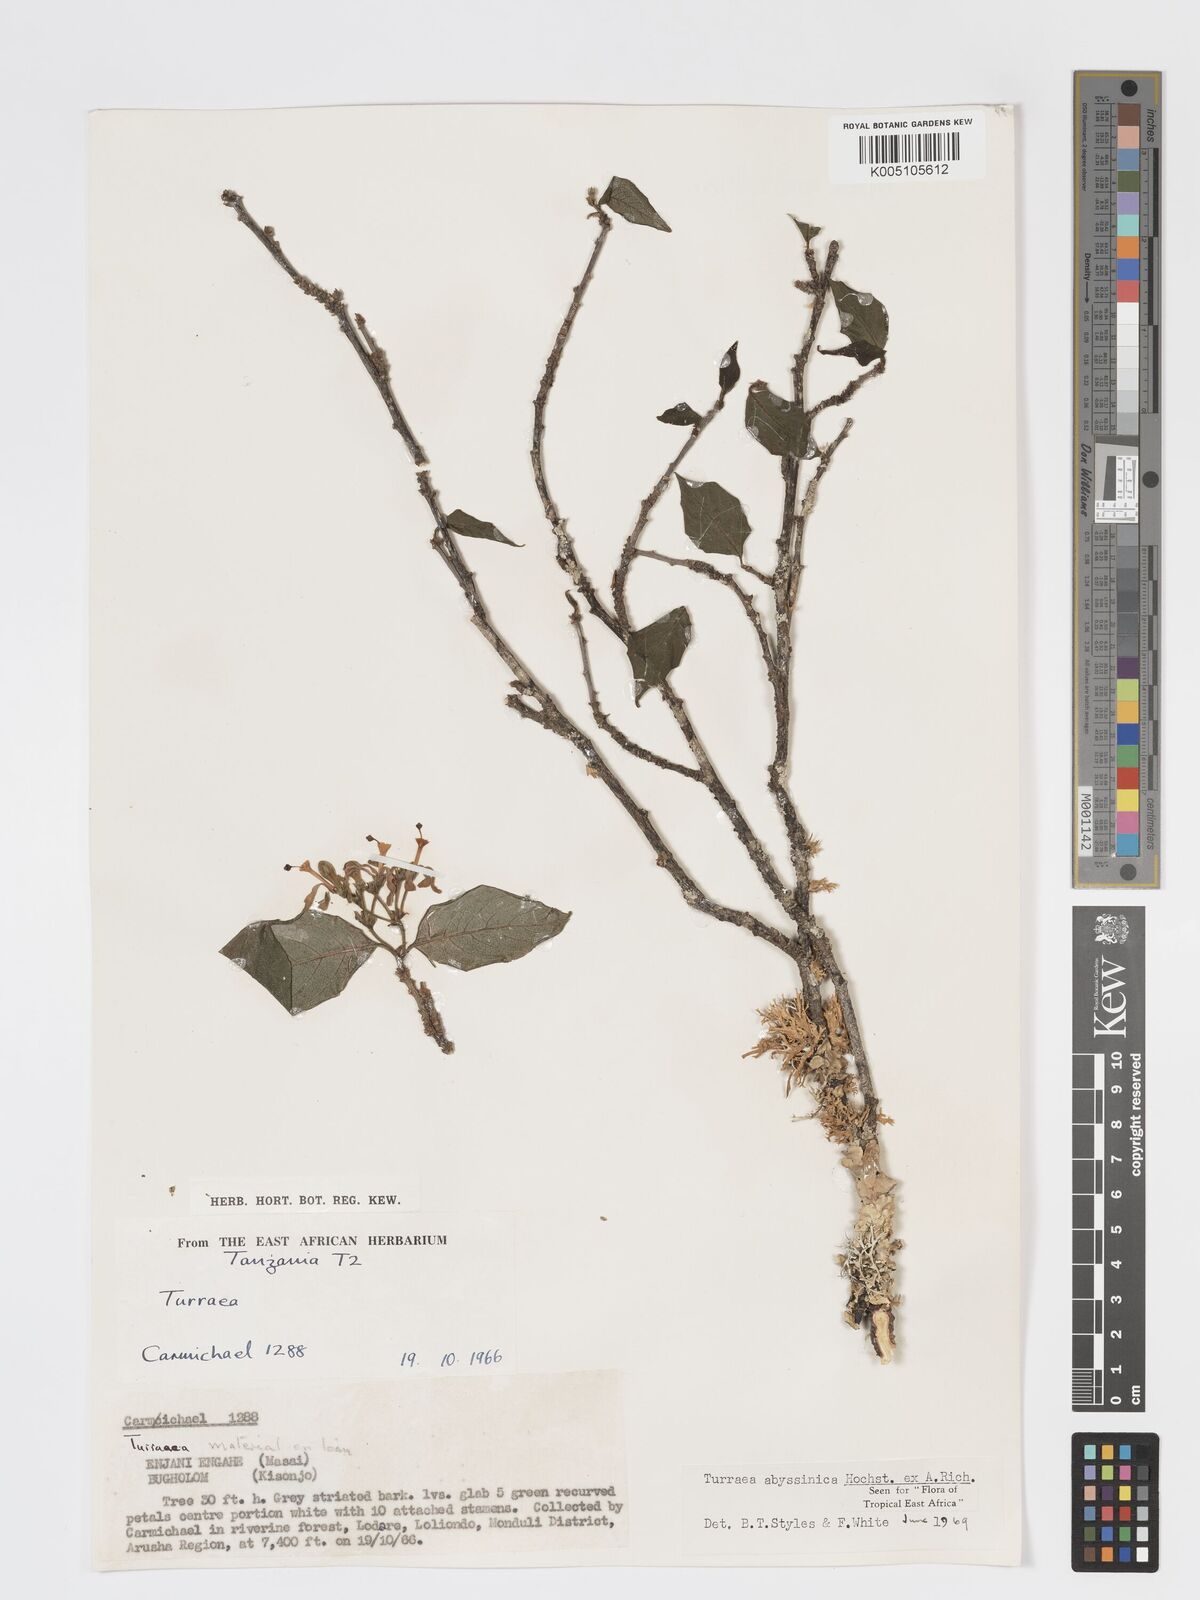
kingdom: Plantae
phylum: Tracheophyta
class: Magnoliopsida
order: Sapindales
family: Meliaceae
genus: Turraea
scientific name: Turraea abyssinica
